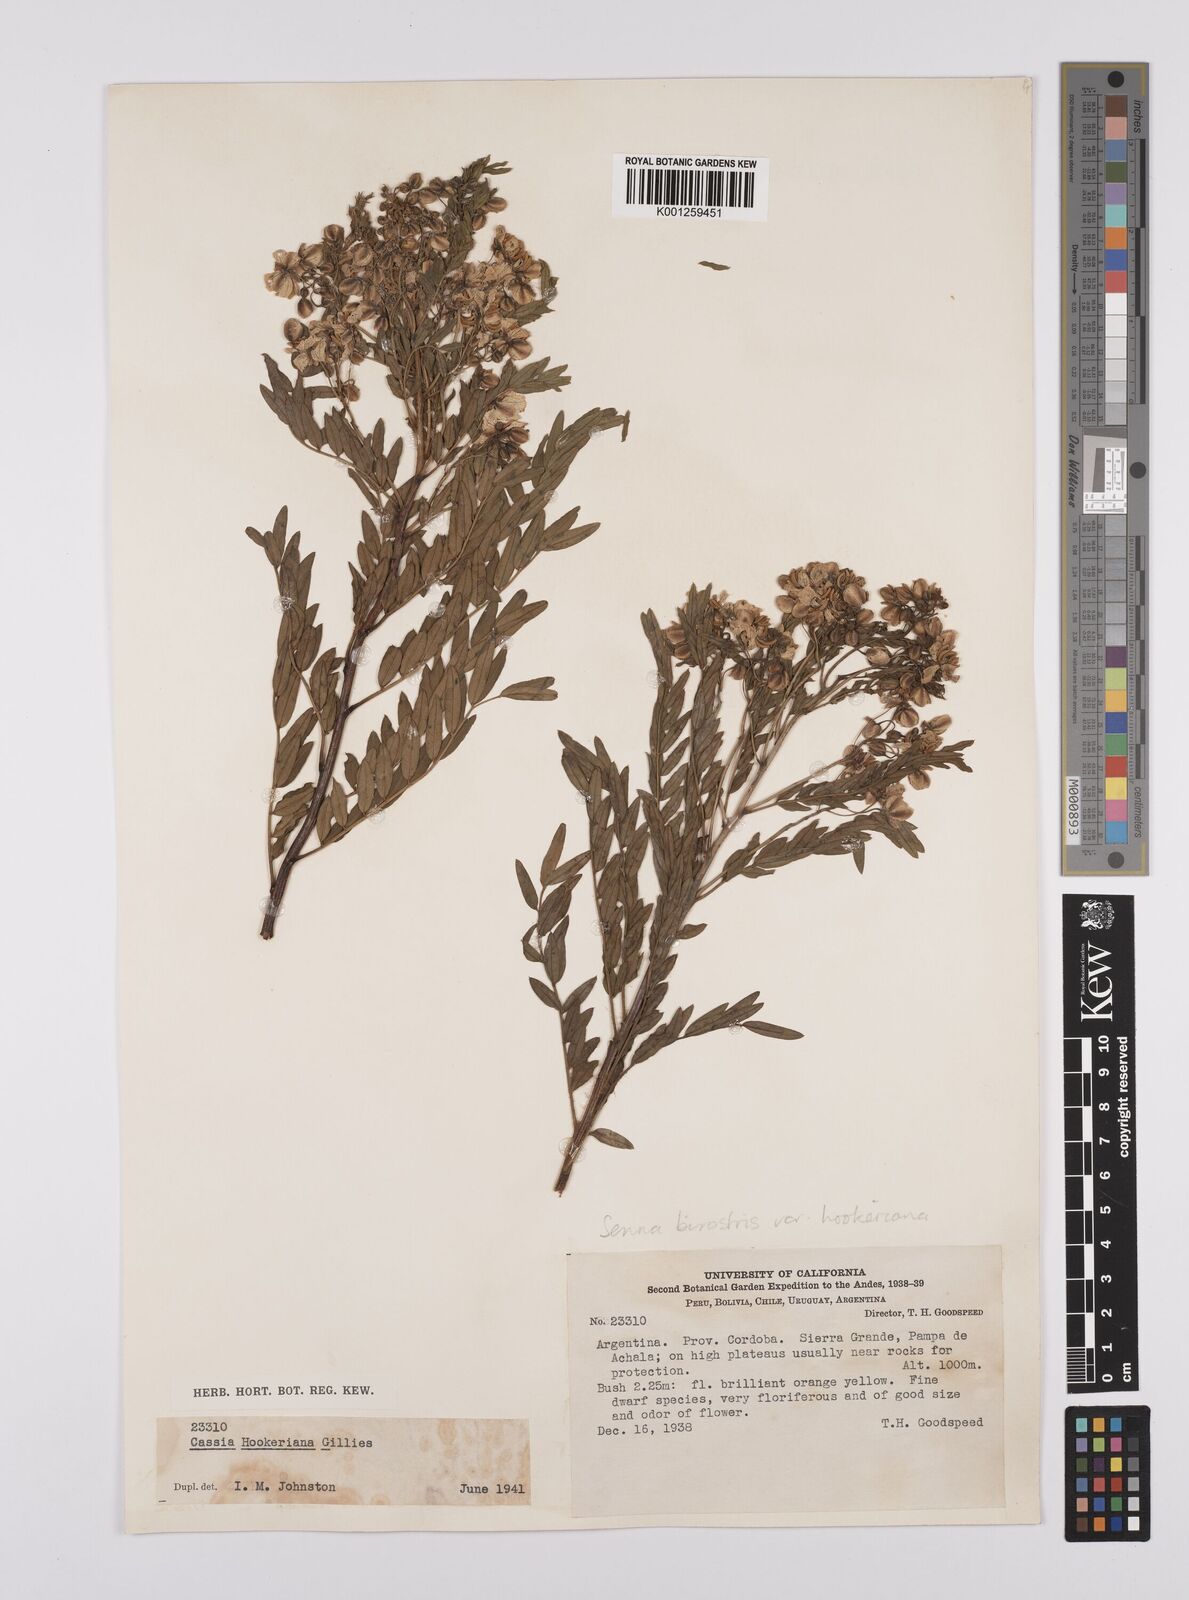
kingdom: Plantae
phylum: Tracheophyta
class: Magnoliopsida
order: Fabales
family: Fabaceae
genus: Senna
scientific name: Senna birostris
